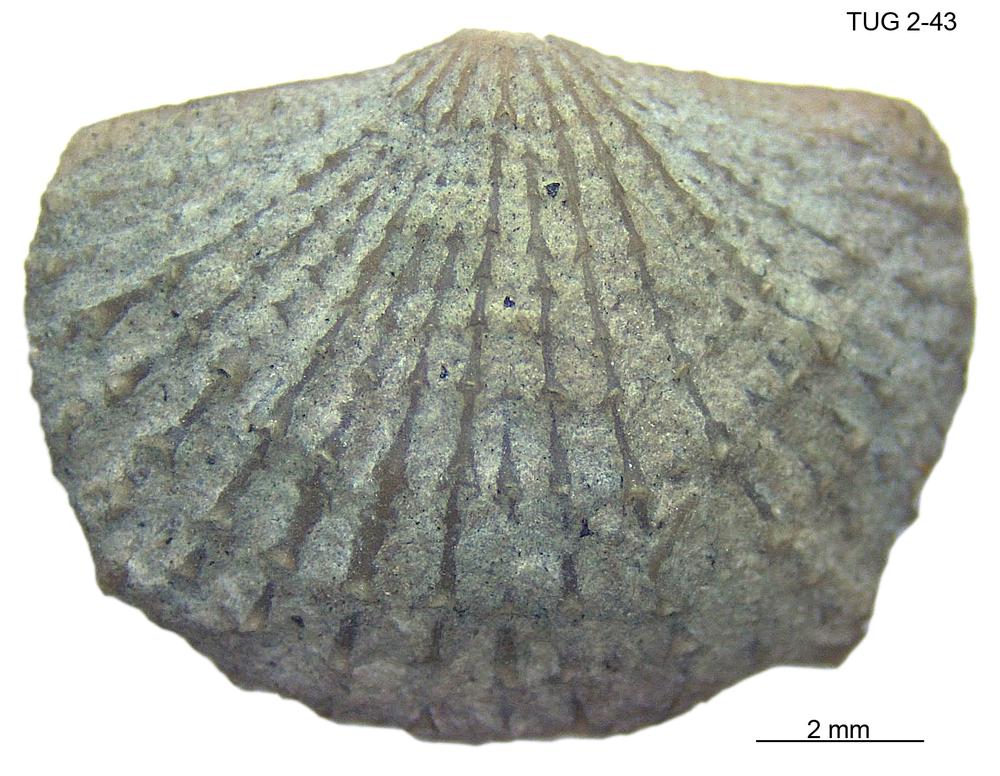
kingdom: Animalia
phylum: Brachiopoda
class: Rhynchonellata
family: Dolerorthidae
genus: Glyptorthis
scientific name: Glyptorthis plana
